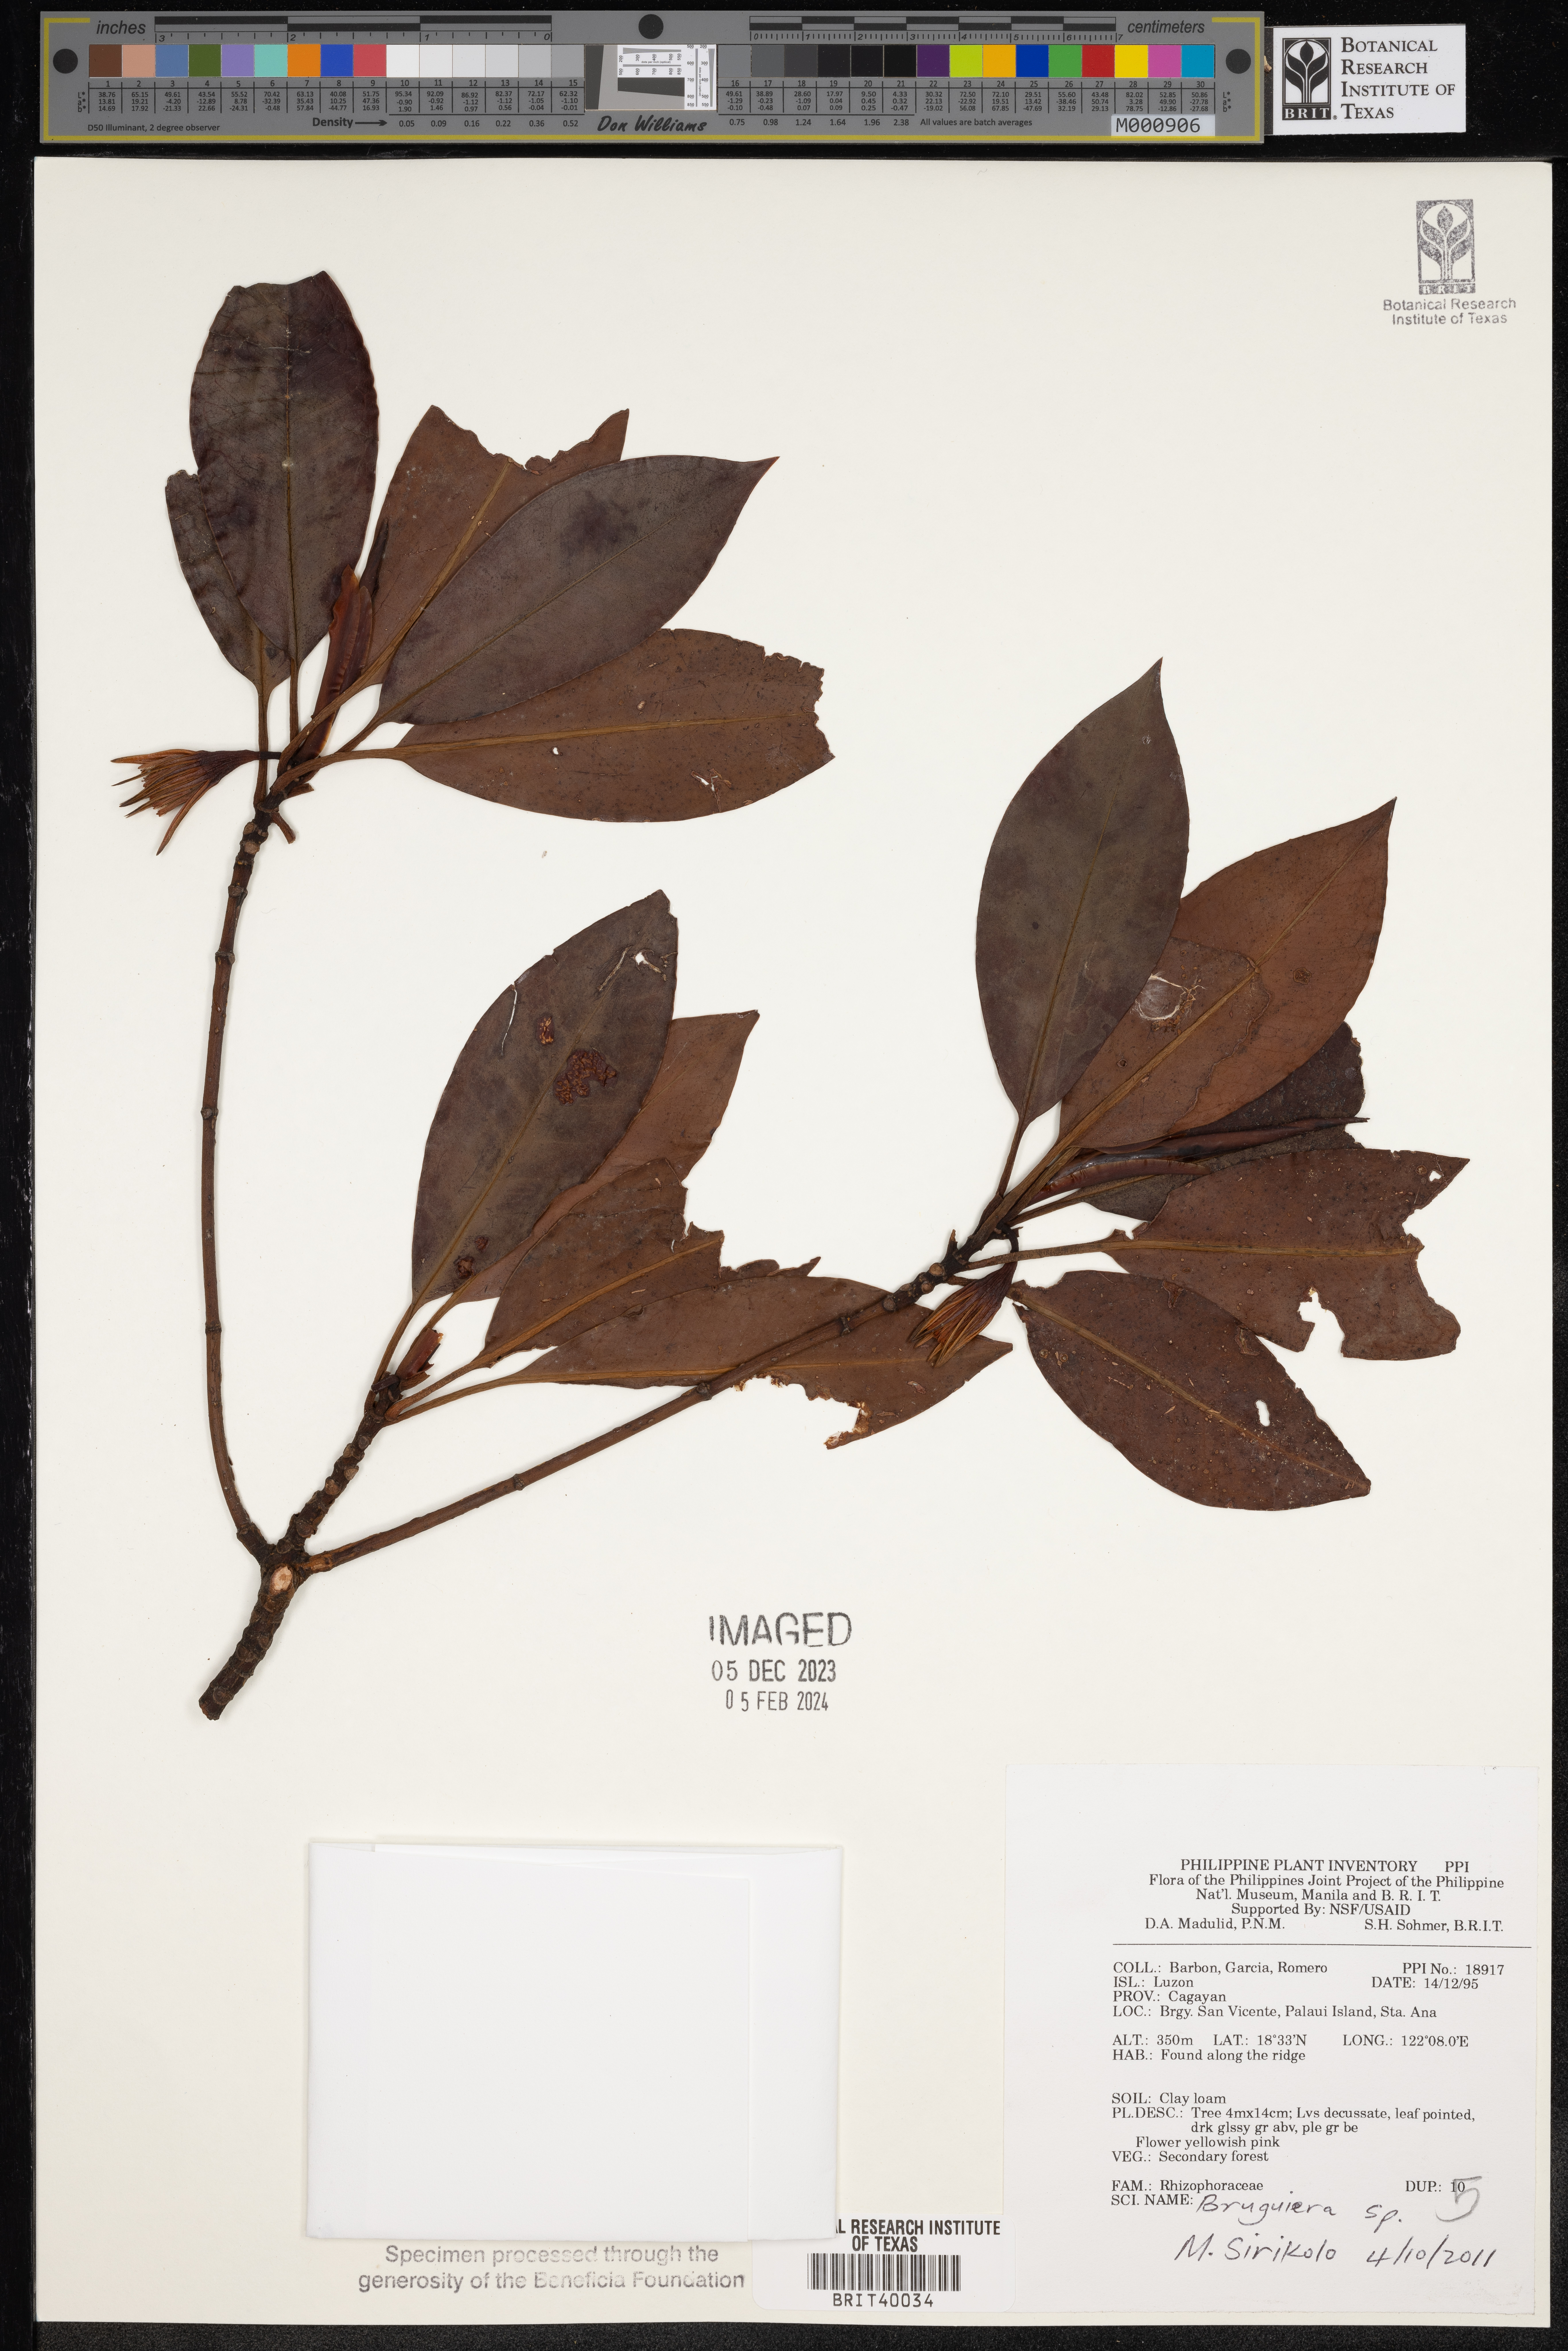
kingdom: Plantae
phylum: Tracheophyta
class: Magnoliopsida
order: Malpighiales
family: Rhizophoraceae
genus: Bruguiera
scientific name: Bruguiera
